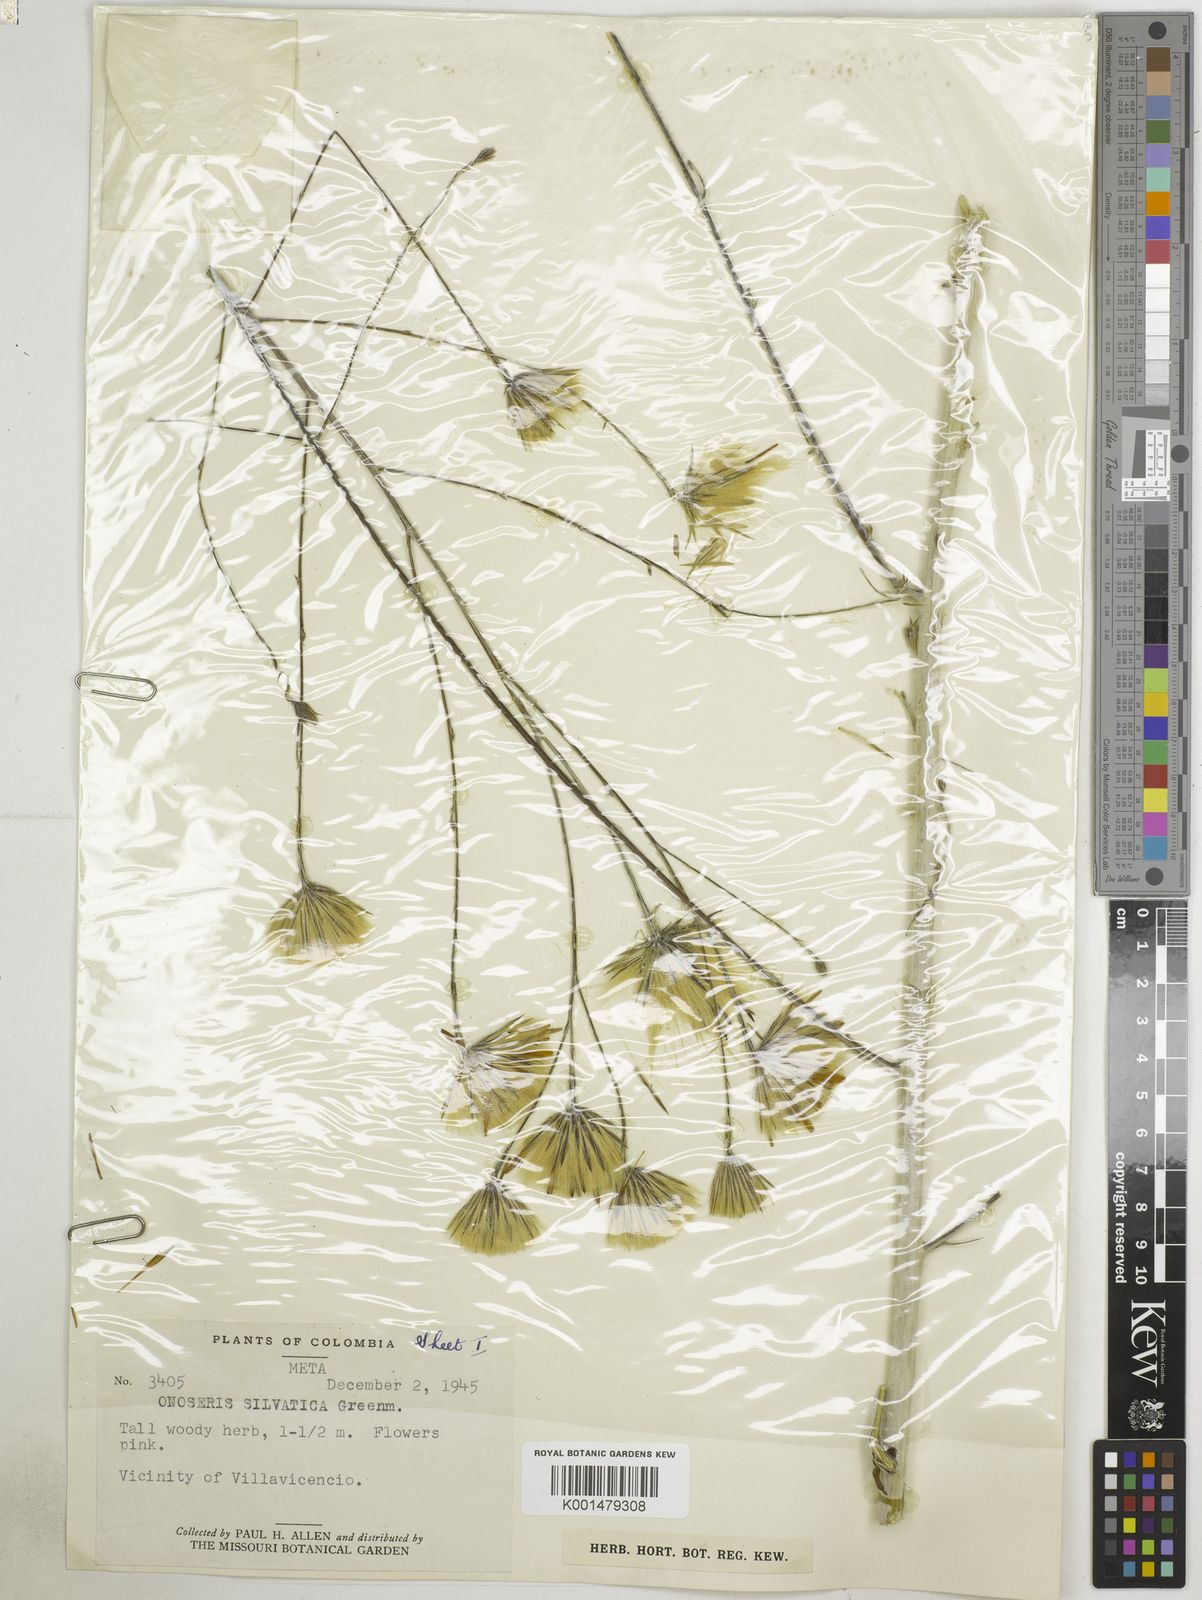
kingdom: Plantae
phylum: Tracheophyta
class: Magnoliopsida
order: Asterales
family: Asteraceae
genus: Onoseris
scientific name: Onoseris silvatica
